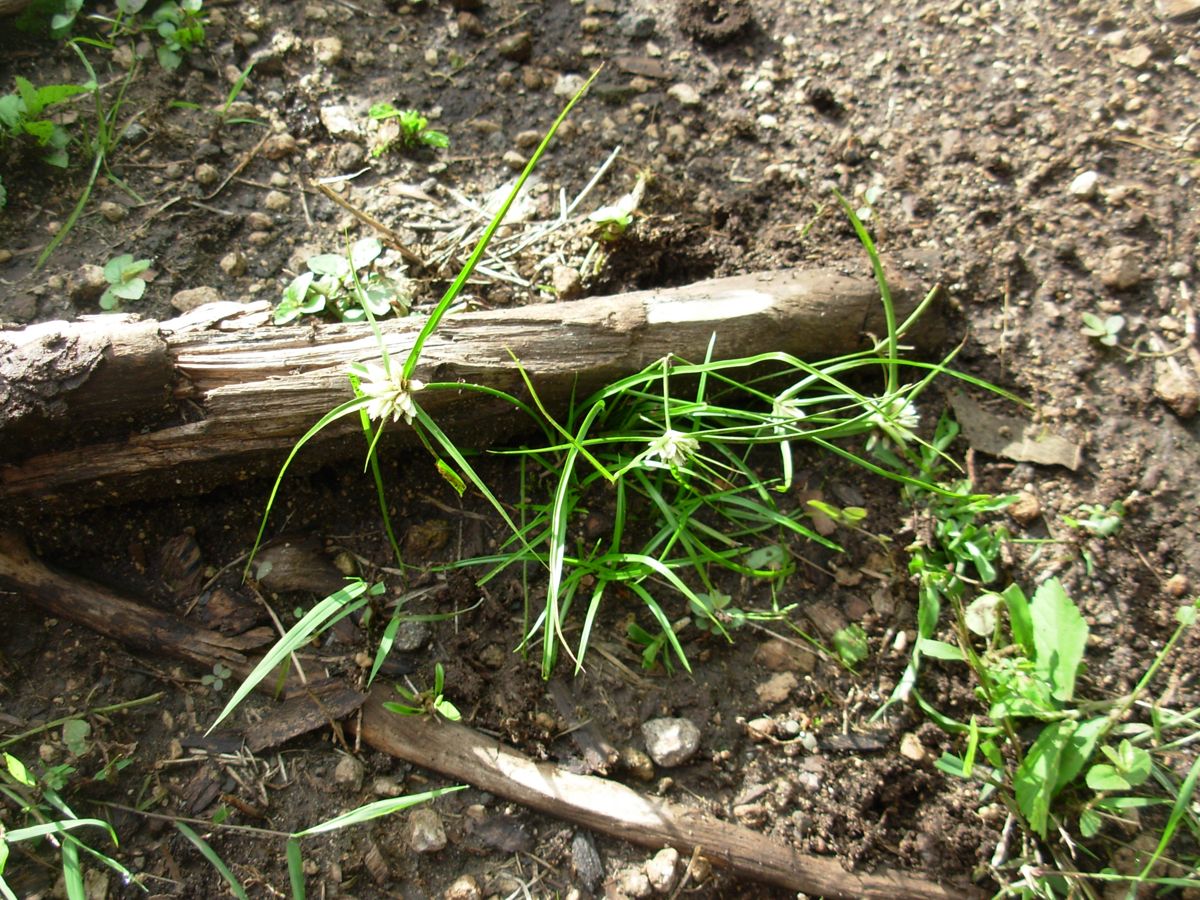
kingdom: Plantae
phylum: Tracheophyta
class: Liliopsida
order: Poales
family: Cyperaceae
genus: Cyperus
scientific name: Cyperus tenerrimus
